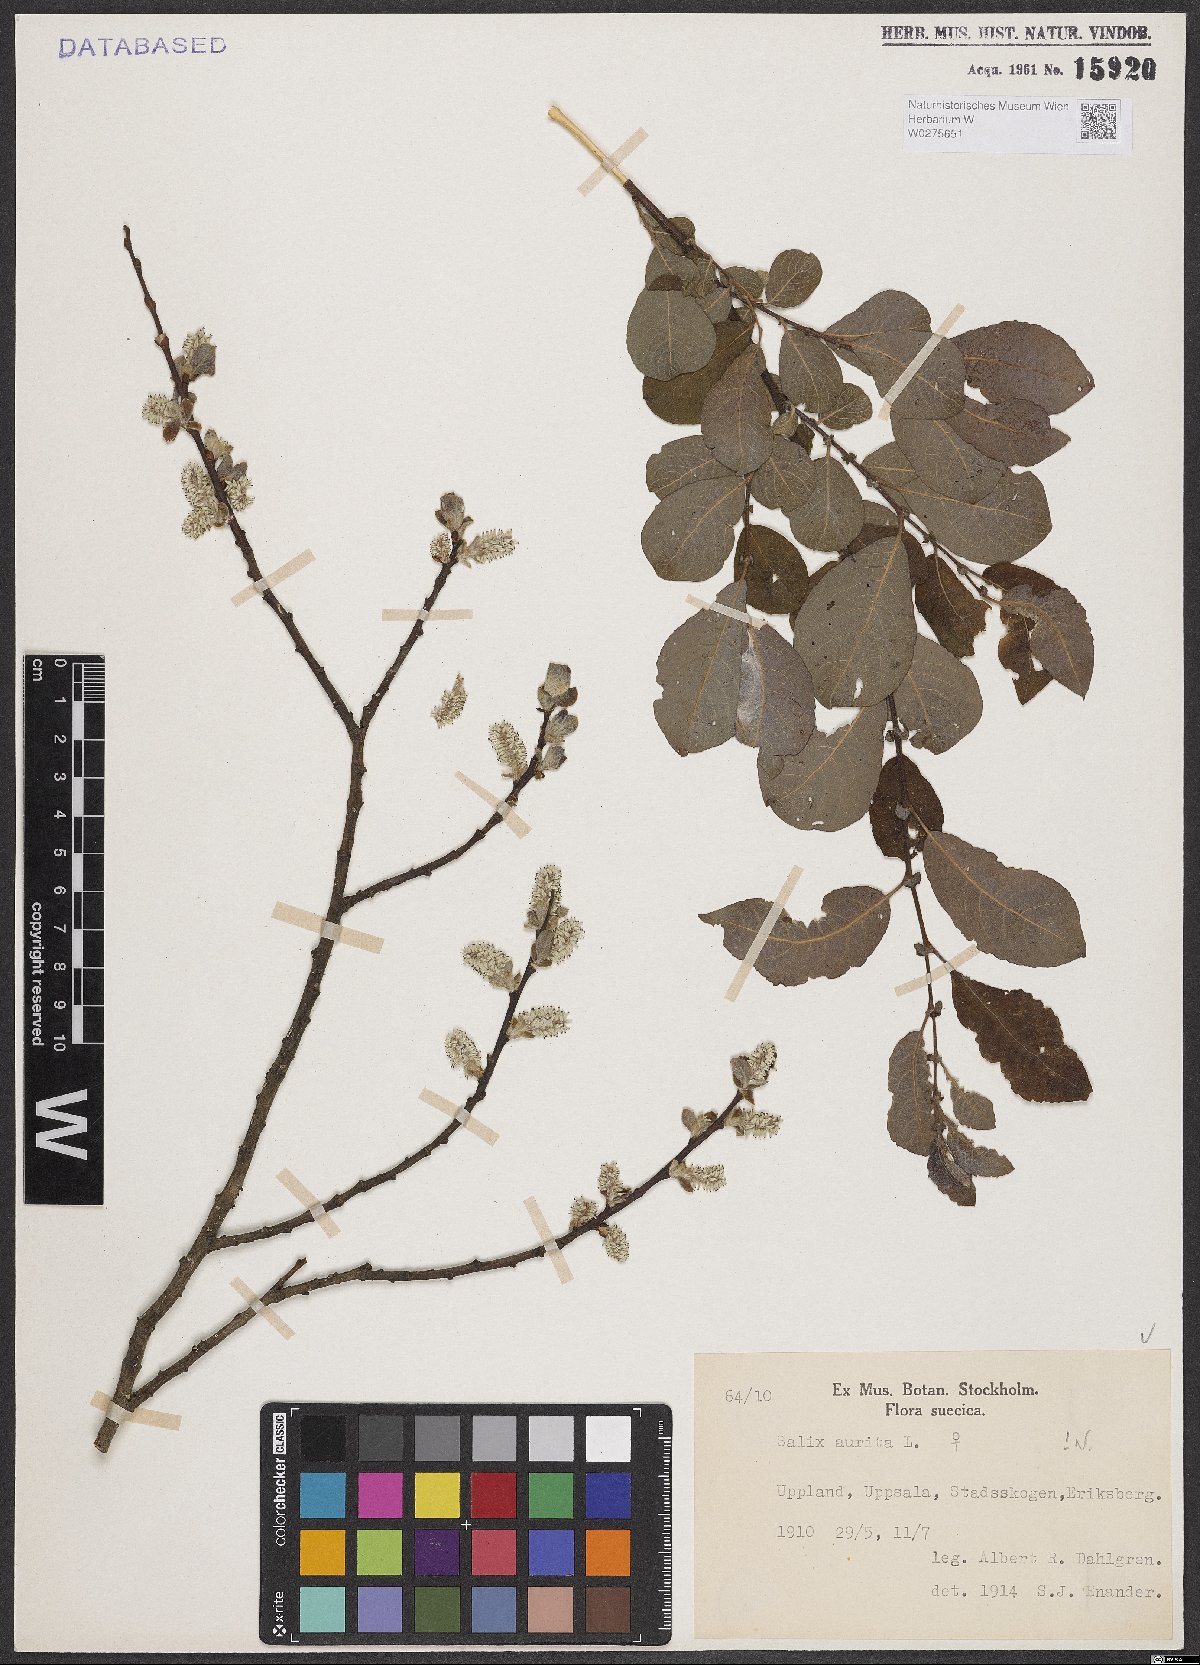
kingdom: Plantae
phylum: Tracheophyta
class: Magnoliopsida
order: Malpighiales
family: Salicaceae
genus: Salix
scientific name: Salix aurita
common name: Eared willow
